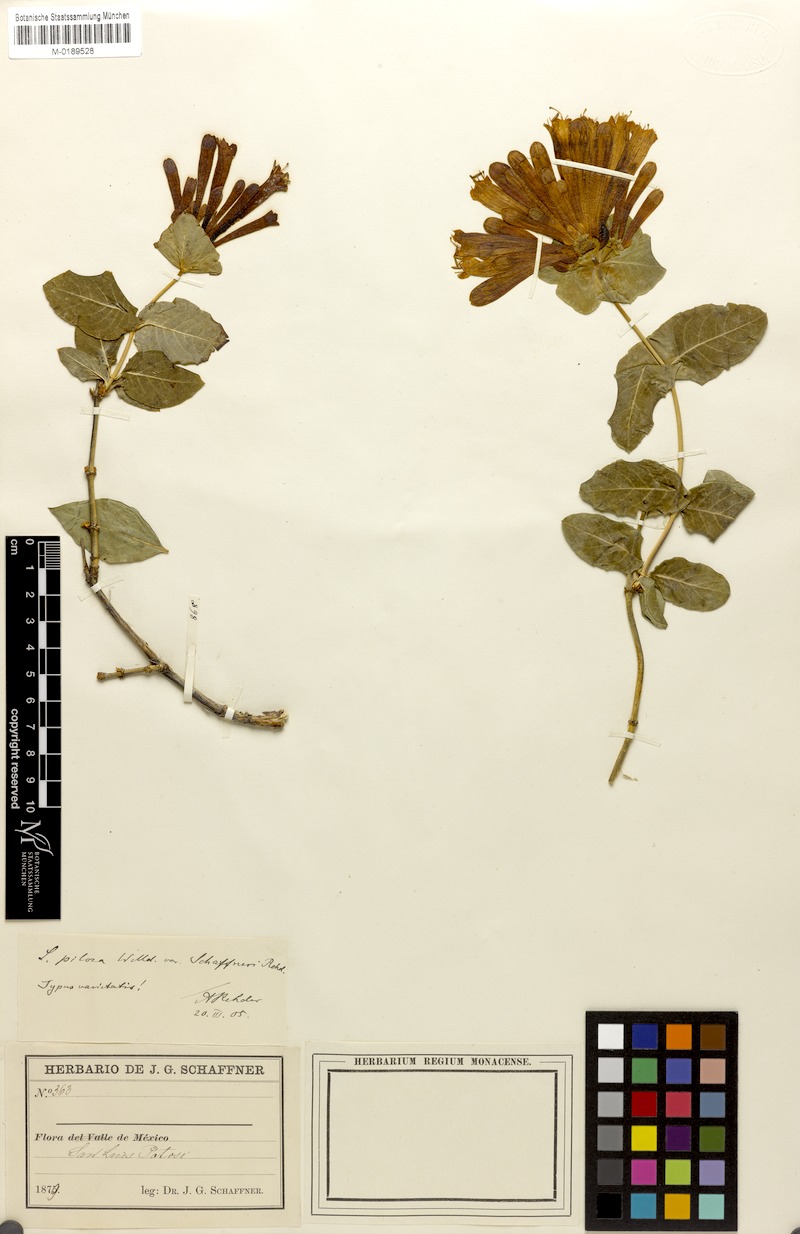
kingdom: Plantae
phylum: Tracheophyta
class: Magnoliopsida
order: Dipsacales
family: Caprifoliaceae
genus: Lonicera
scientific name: Lonicera pilosa
